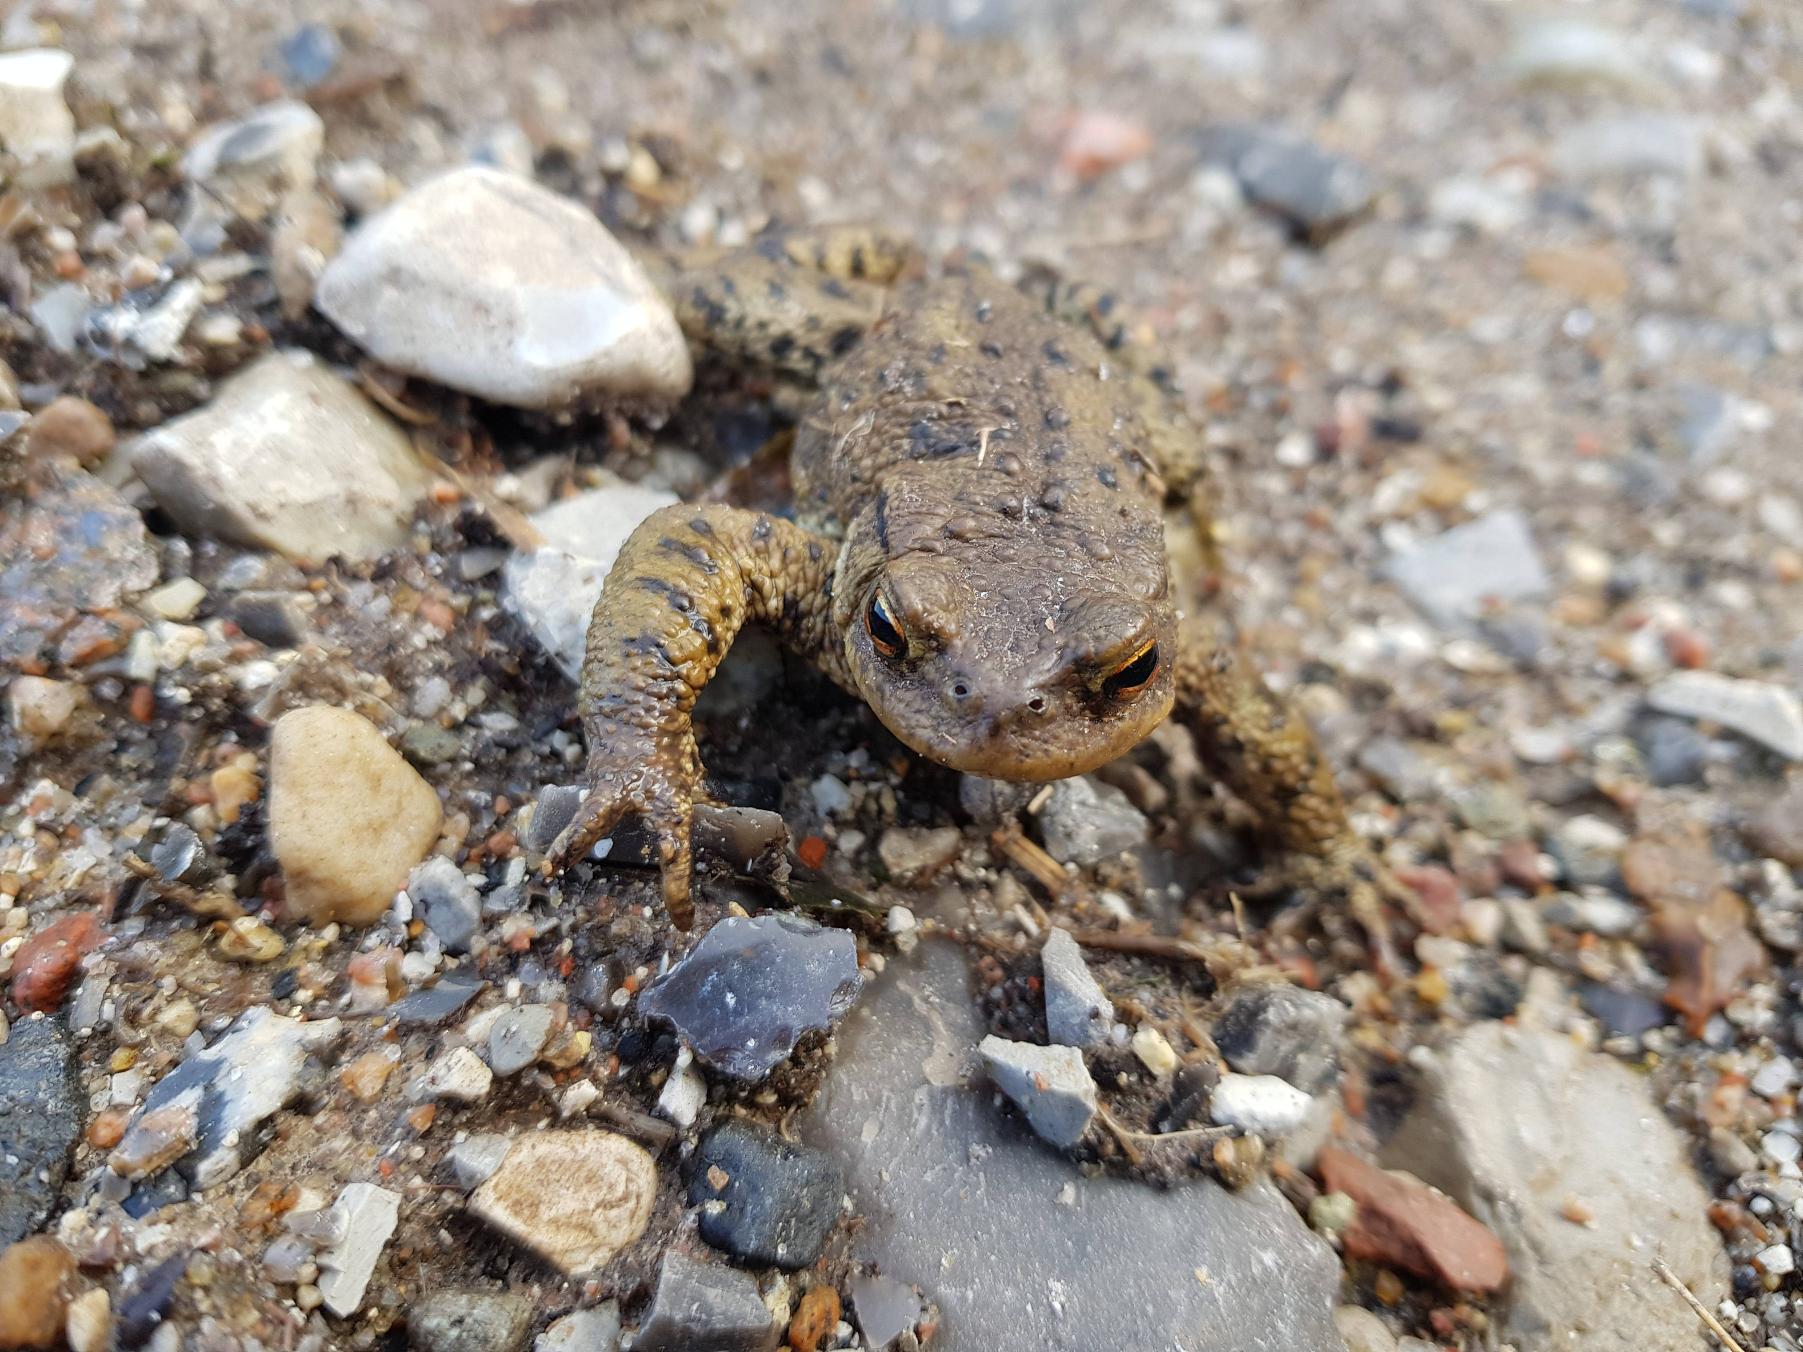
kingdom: Animalia
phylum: Chordata
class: Amphibia
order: Anura
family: Bufonidae
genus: Bufo
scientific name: Bufo bufo
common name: Skrubtudse
